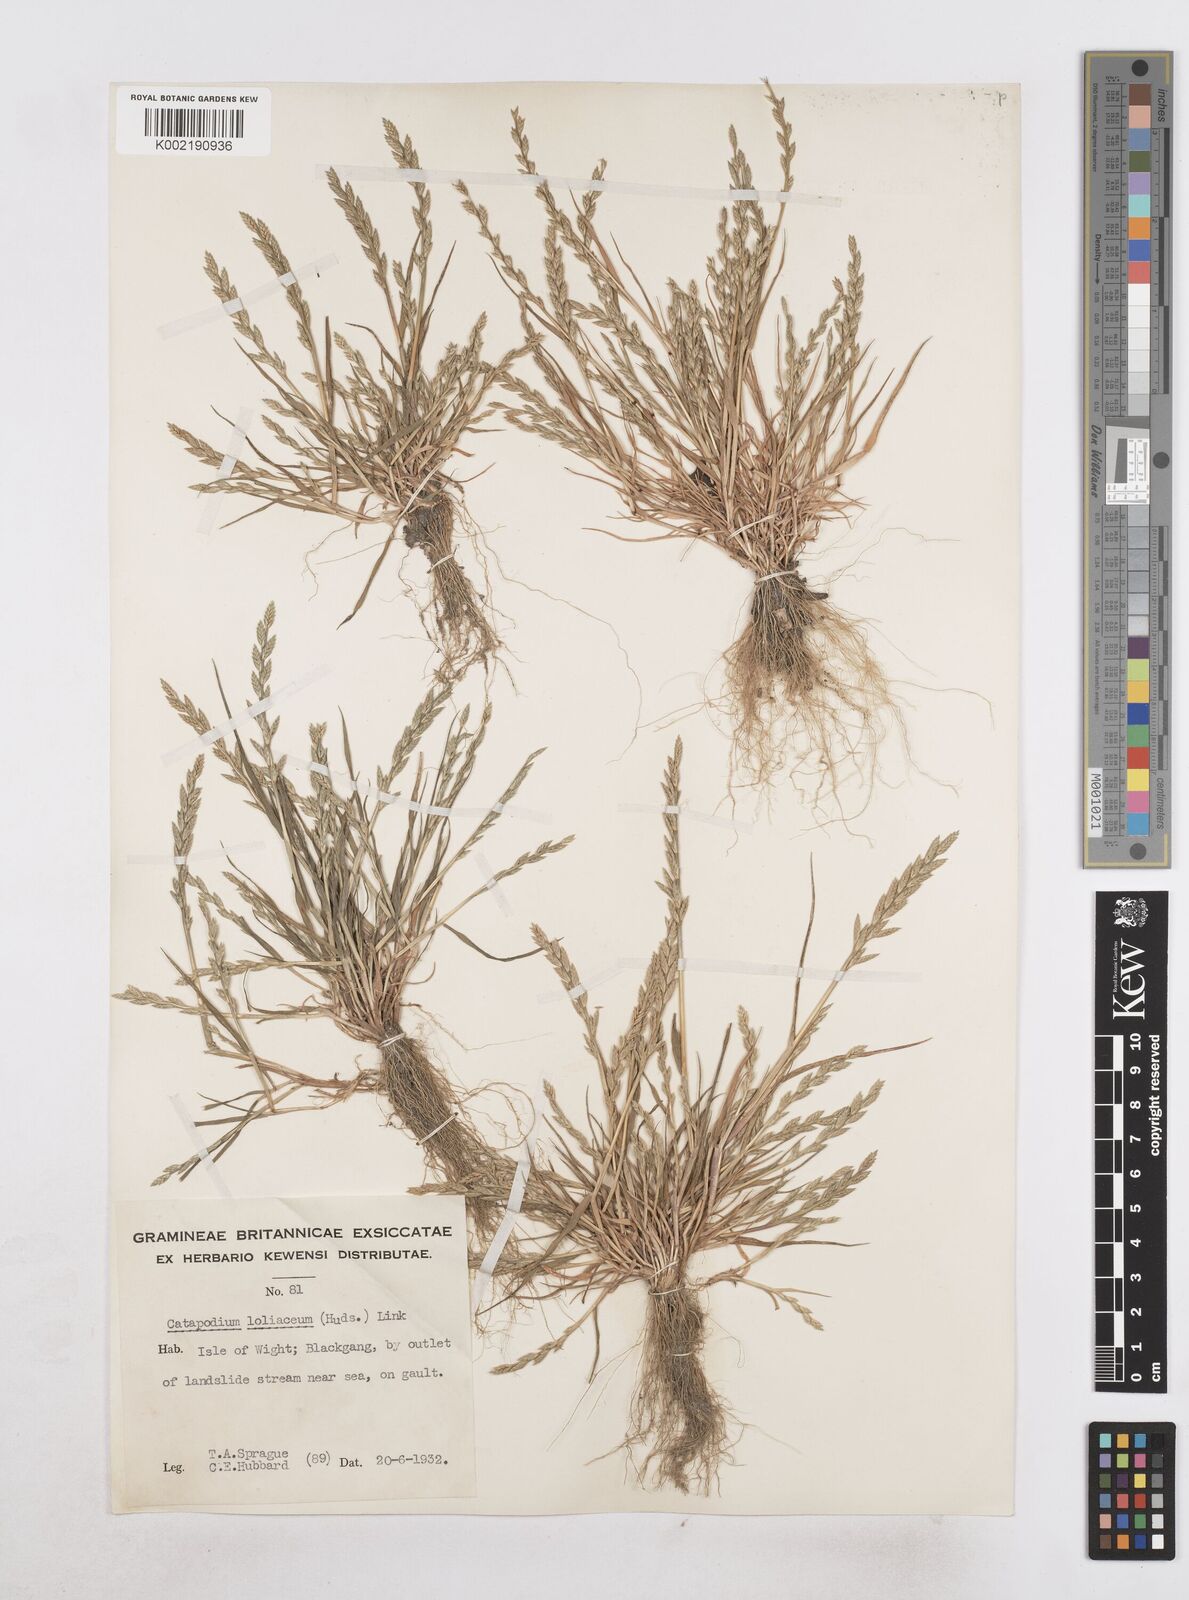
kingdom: Plantae
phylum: Tracheophyta
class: Liliopsida
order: Poales
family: Poaceae
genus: Catapodium
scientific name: Catapodium marinum
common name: Sea fern-grass
